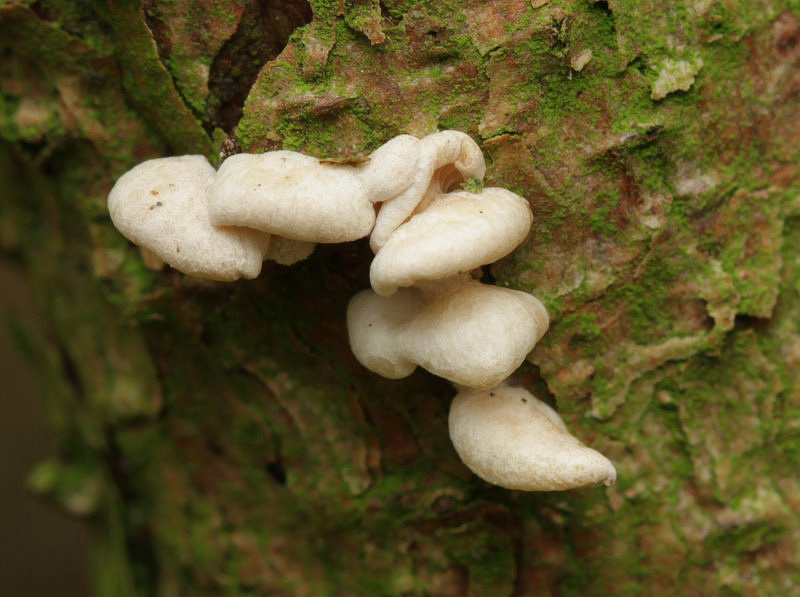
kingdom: Fungi
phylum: Basidiomycota
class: Agaricomycetes
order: Agaricales
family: Mycenaceae
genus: Panellus
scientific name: Panellus mitis
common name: mild epaulethat
